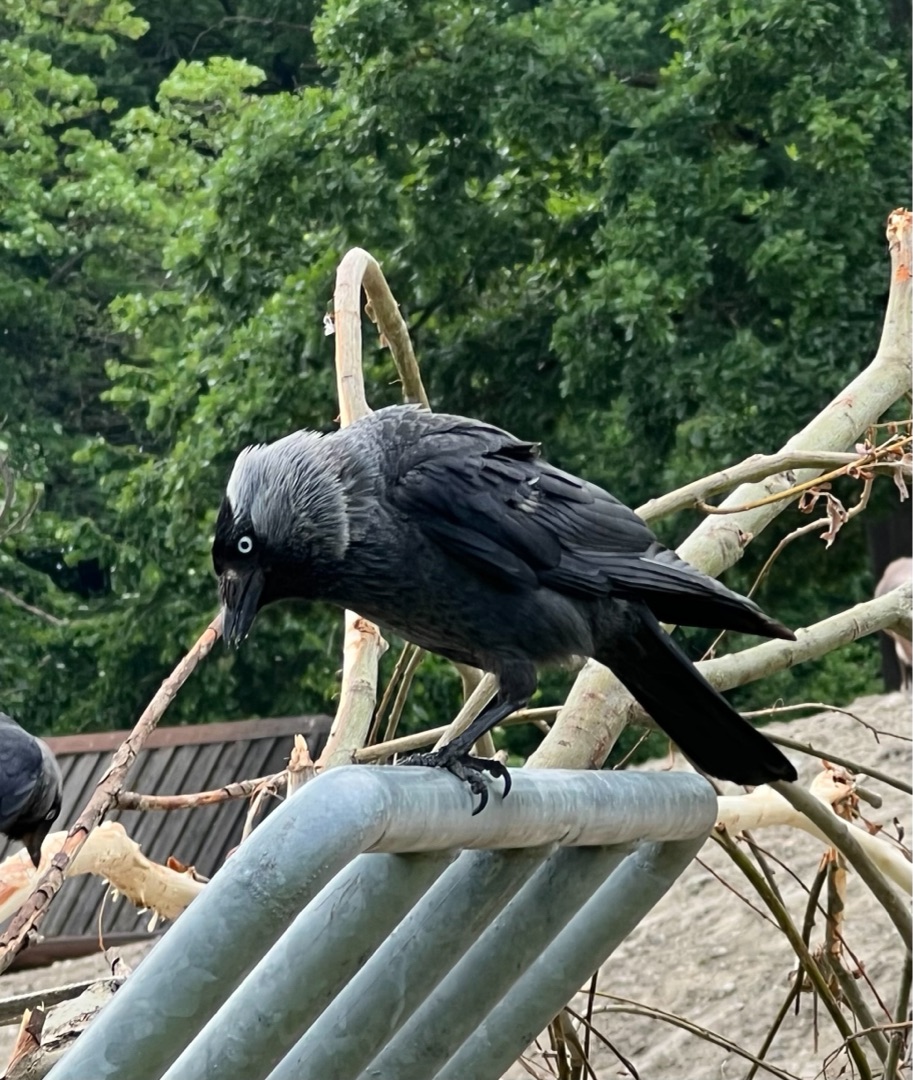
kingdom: Animalia
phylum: Chordata
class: Aves
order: Passeriformes
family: Corvidae
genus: Coloeus
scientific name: Coloeus monedula
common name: Allike
